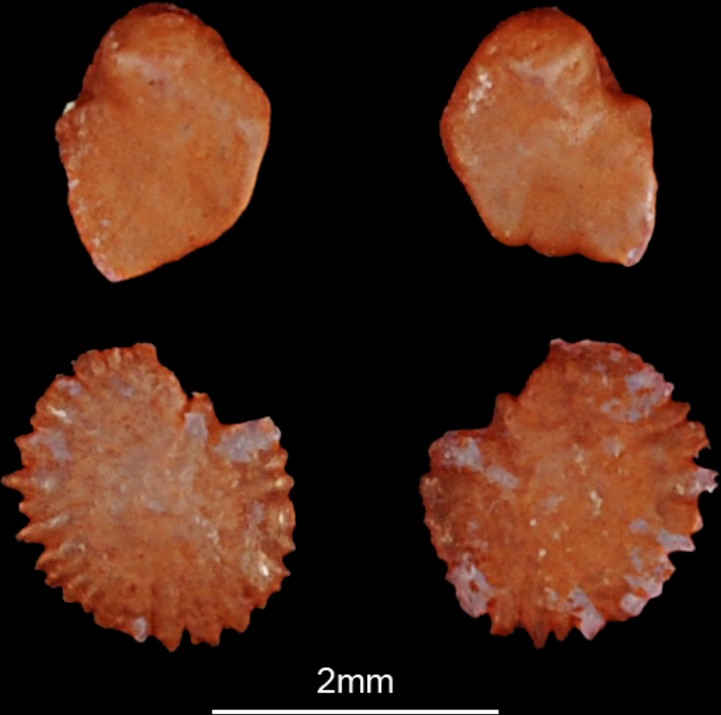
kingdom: Animalia
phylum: Chordata
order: Cypriniformes
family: Cyprinidae
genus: Alburnus
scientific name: Alburnus alburnus
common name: Bleak
